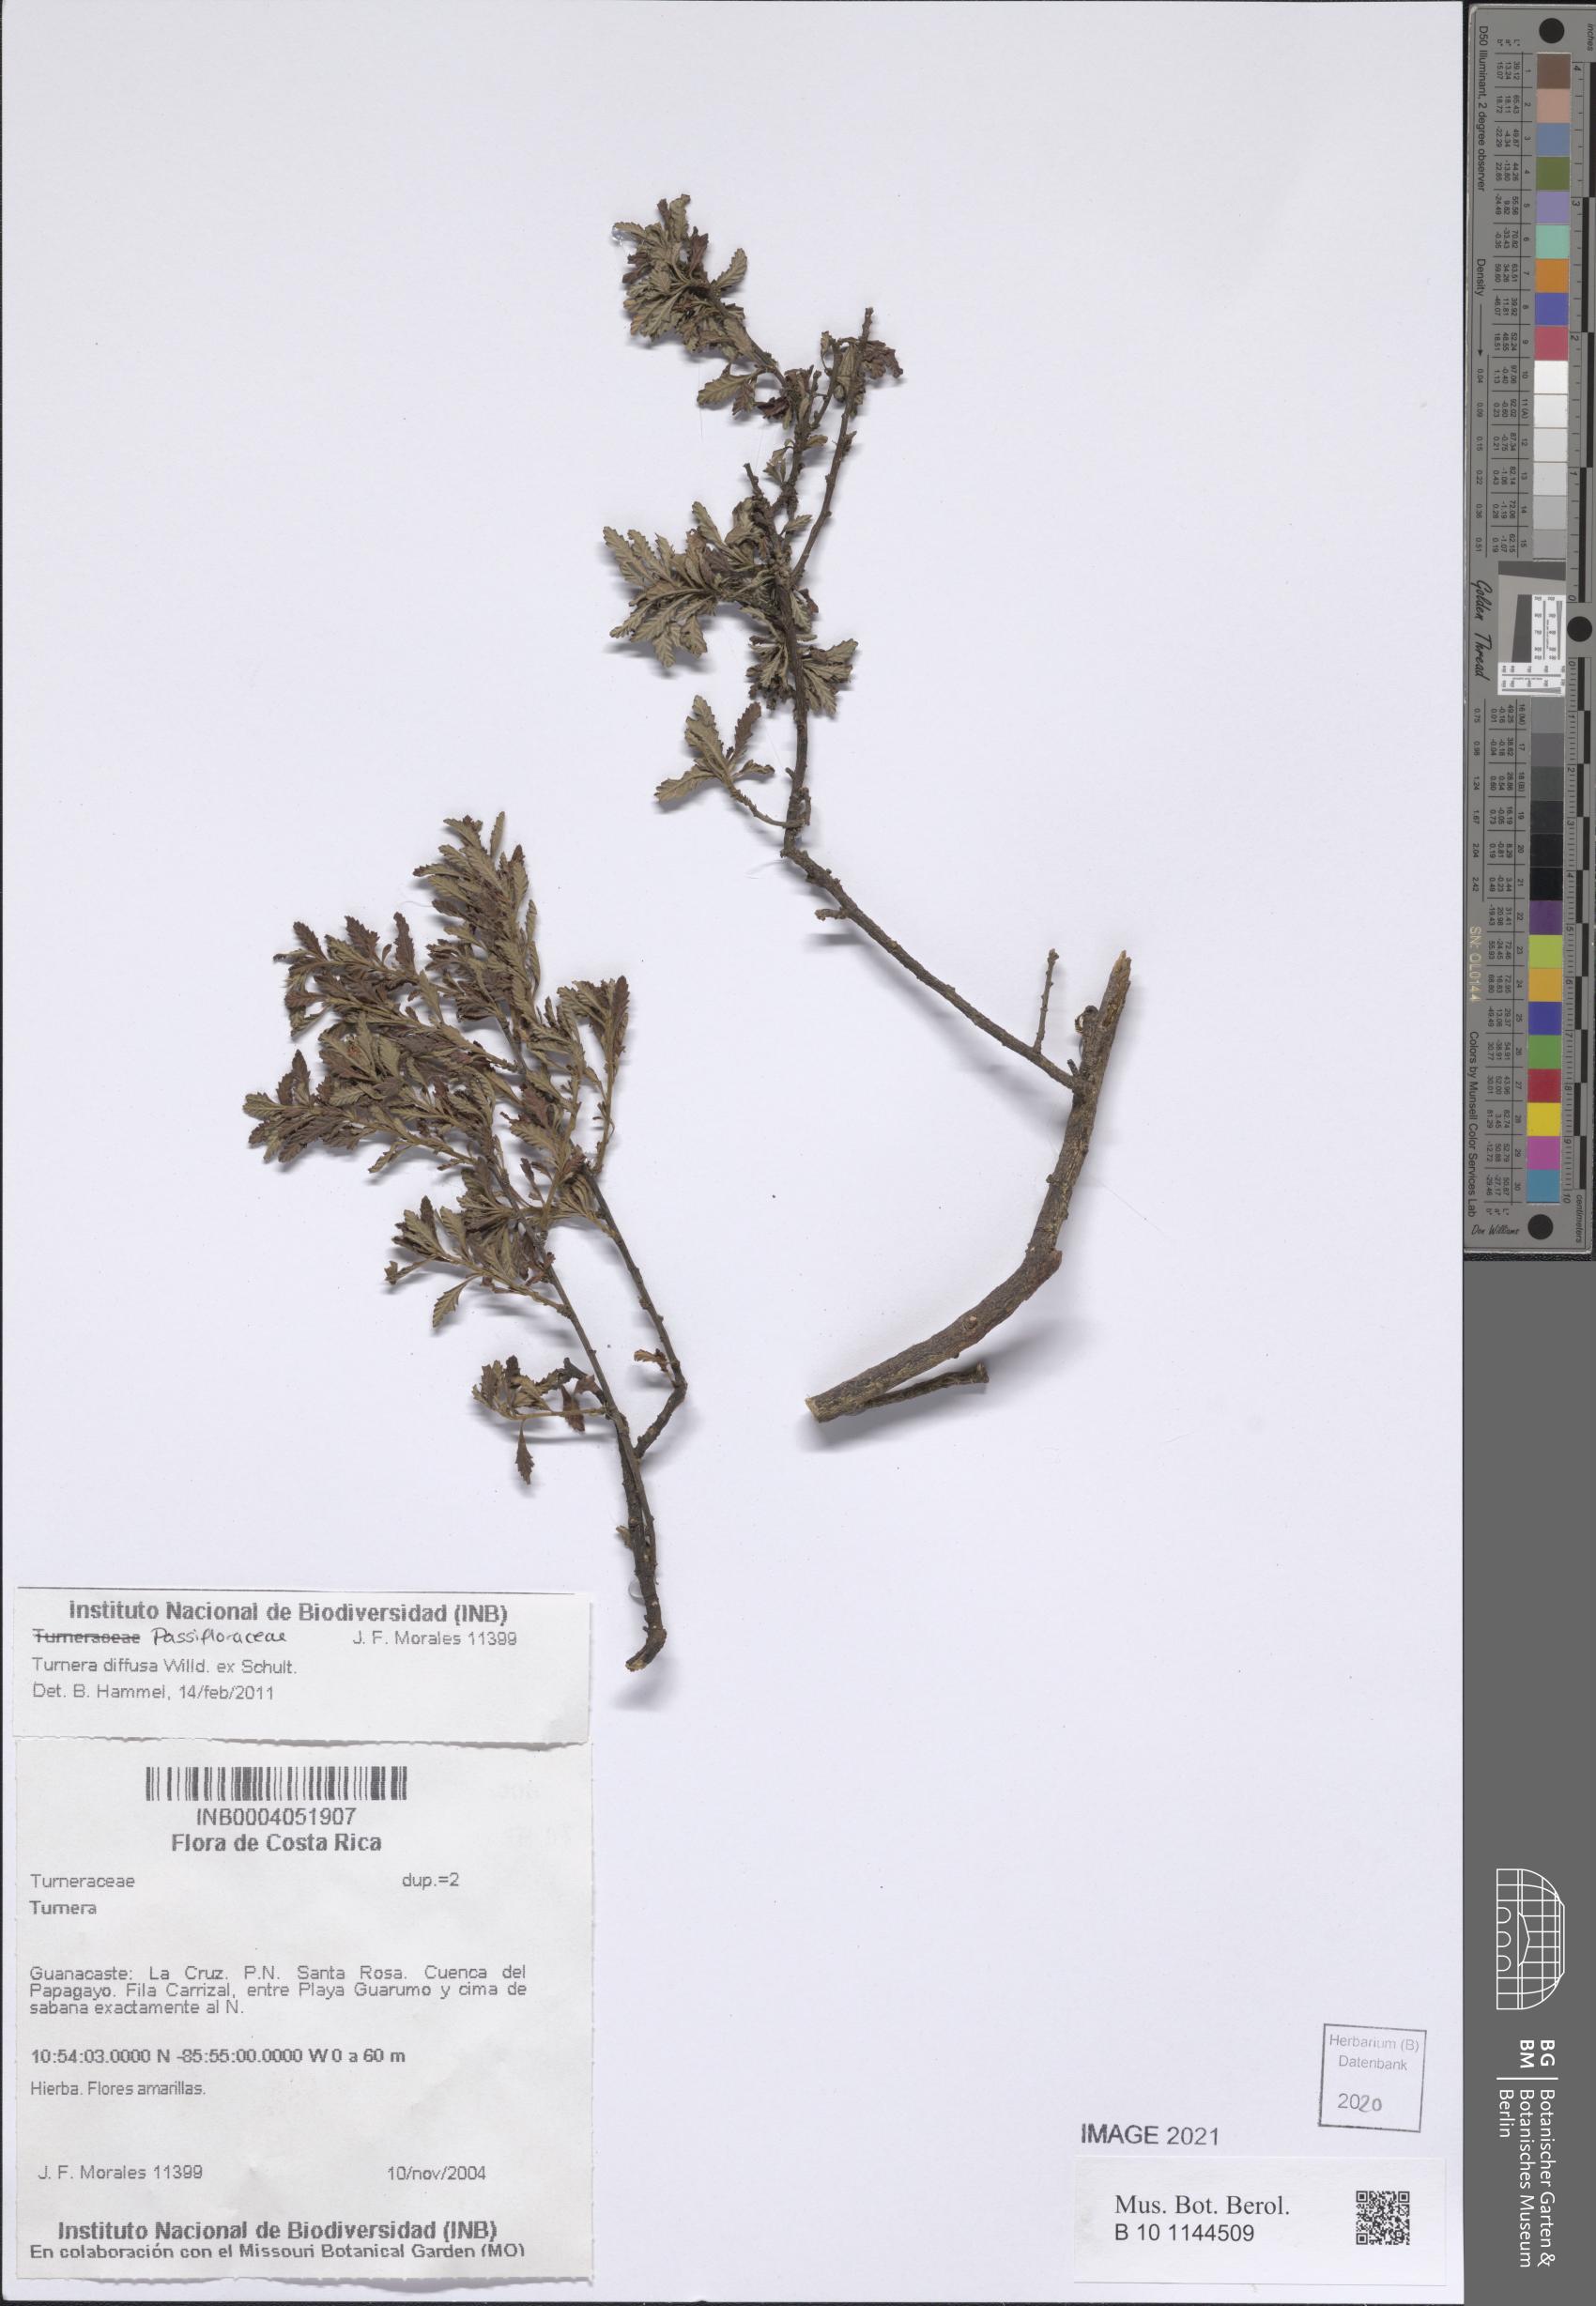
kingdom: Plantae
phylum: Tracheophyta
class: Magnoliopsida
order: Malpighiales
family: Turneraceae
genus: Turnera
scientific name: Turnera diffusa
